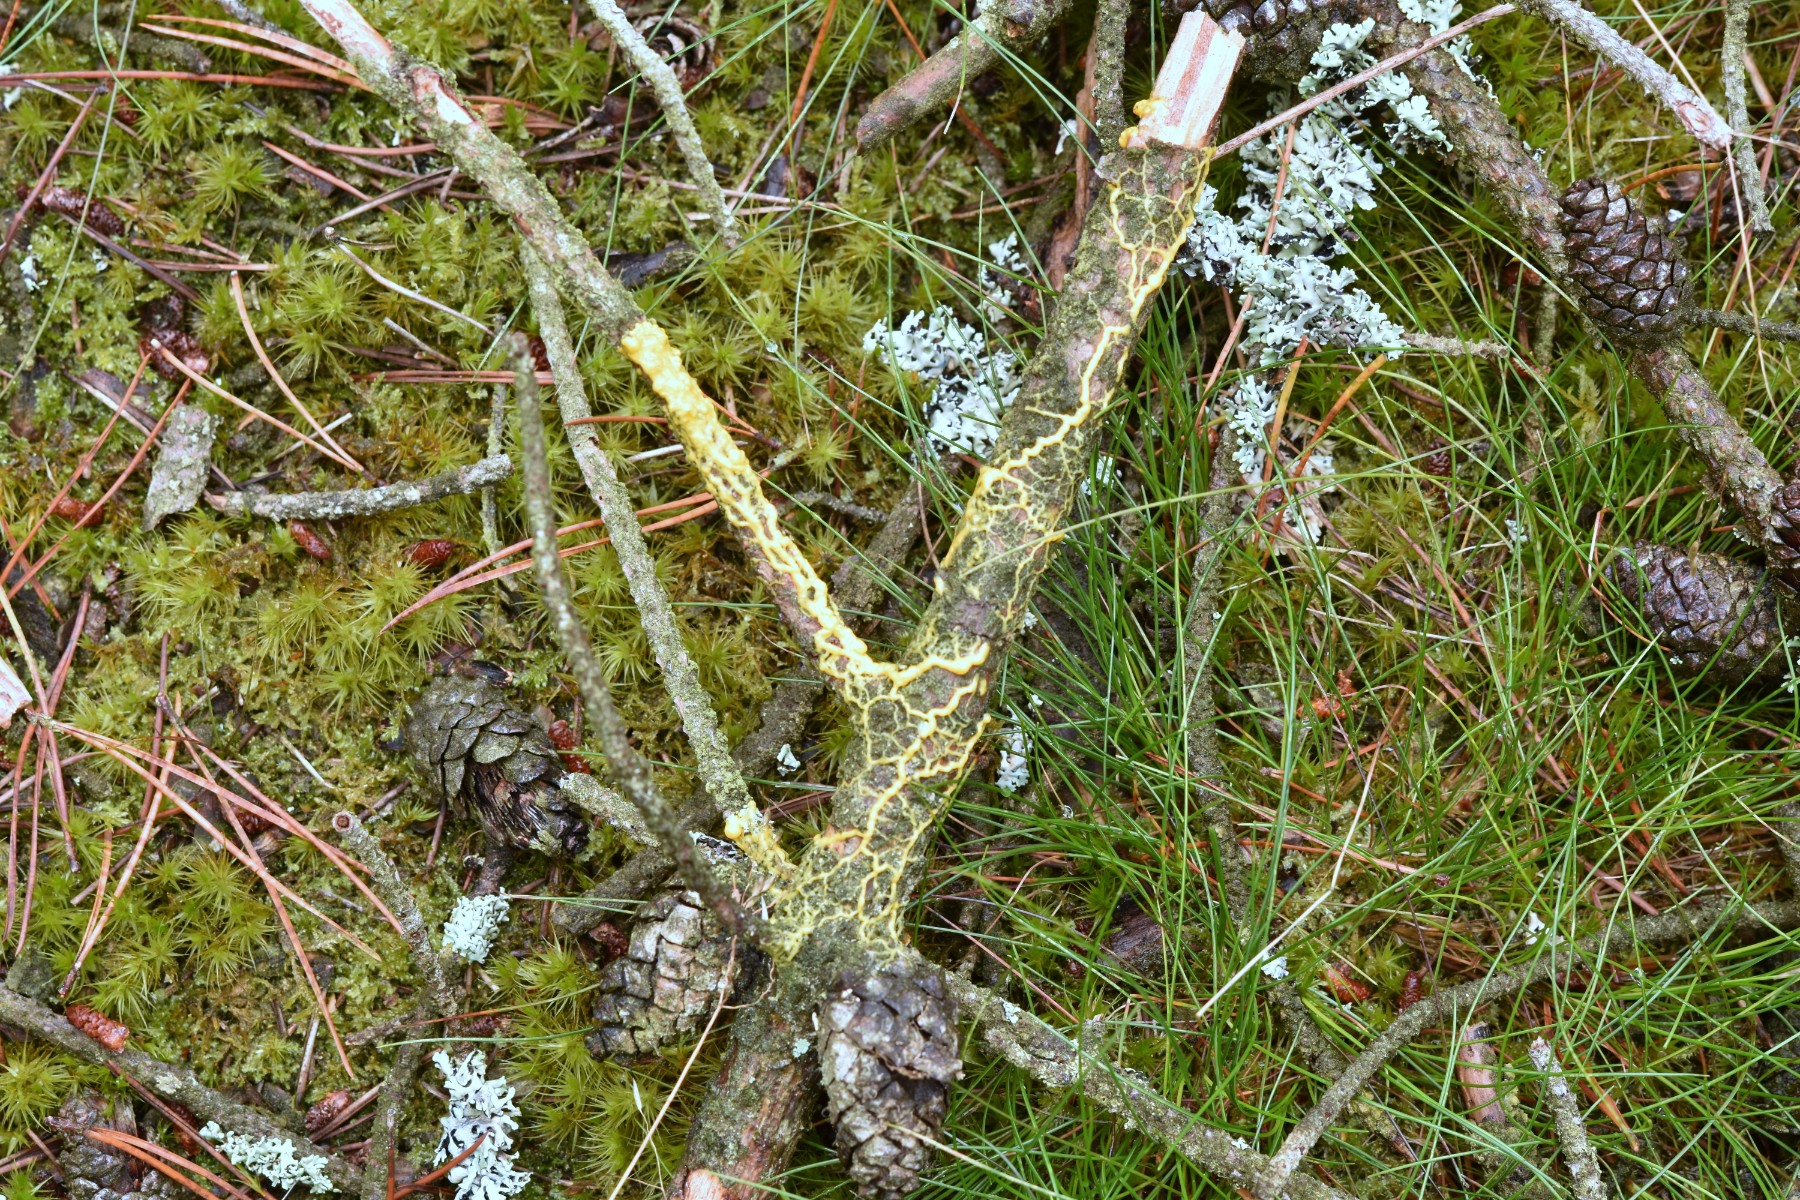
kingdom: Protozoa
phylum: Mycetozoa
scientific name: Mycetozoa
